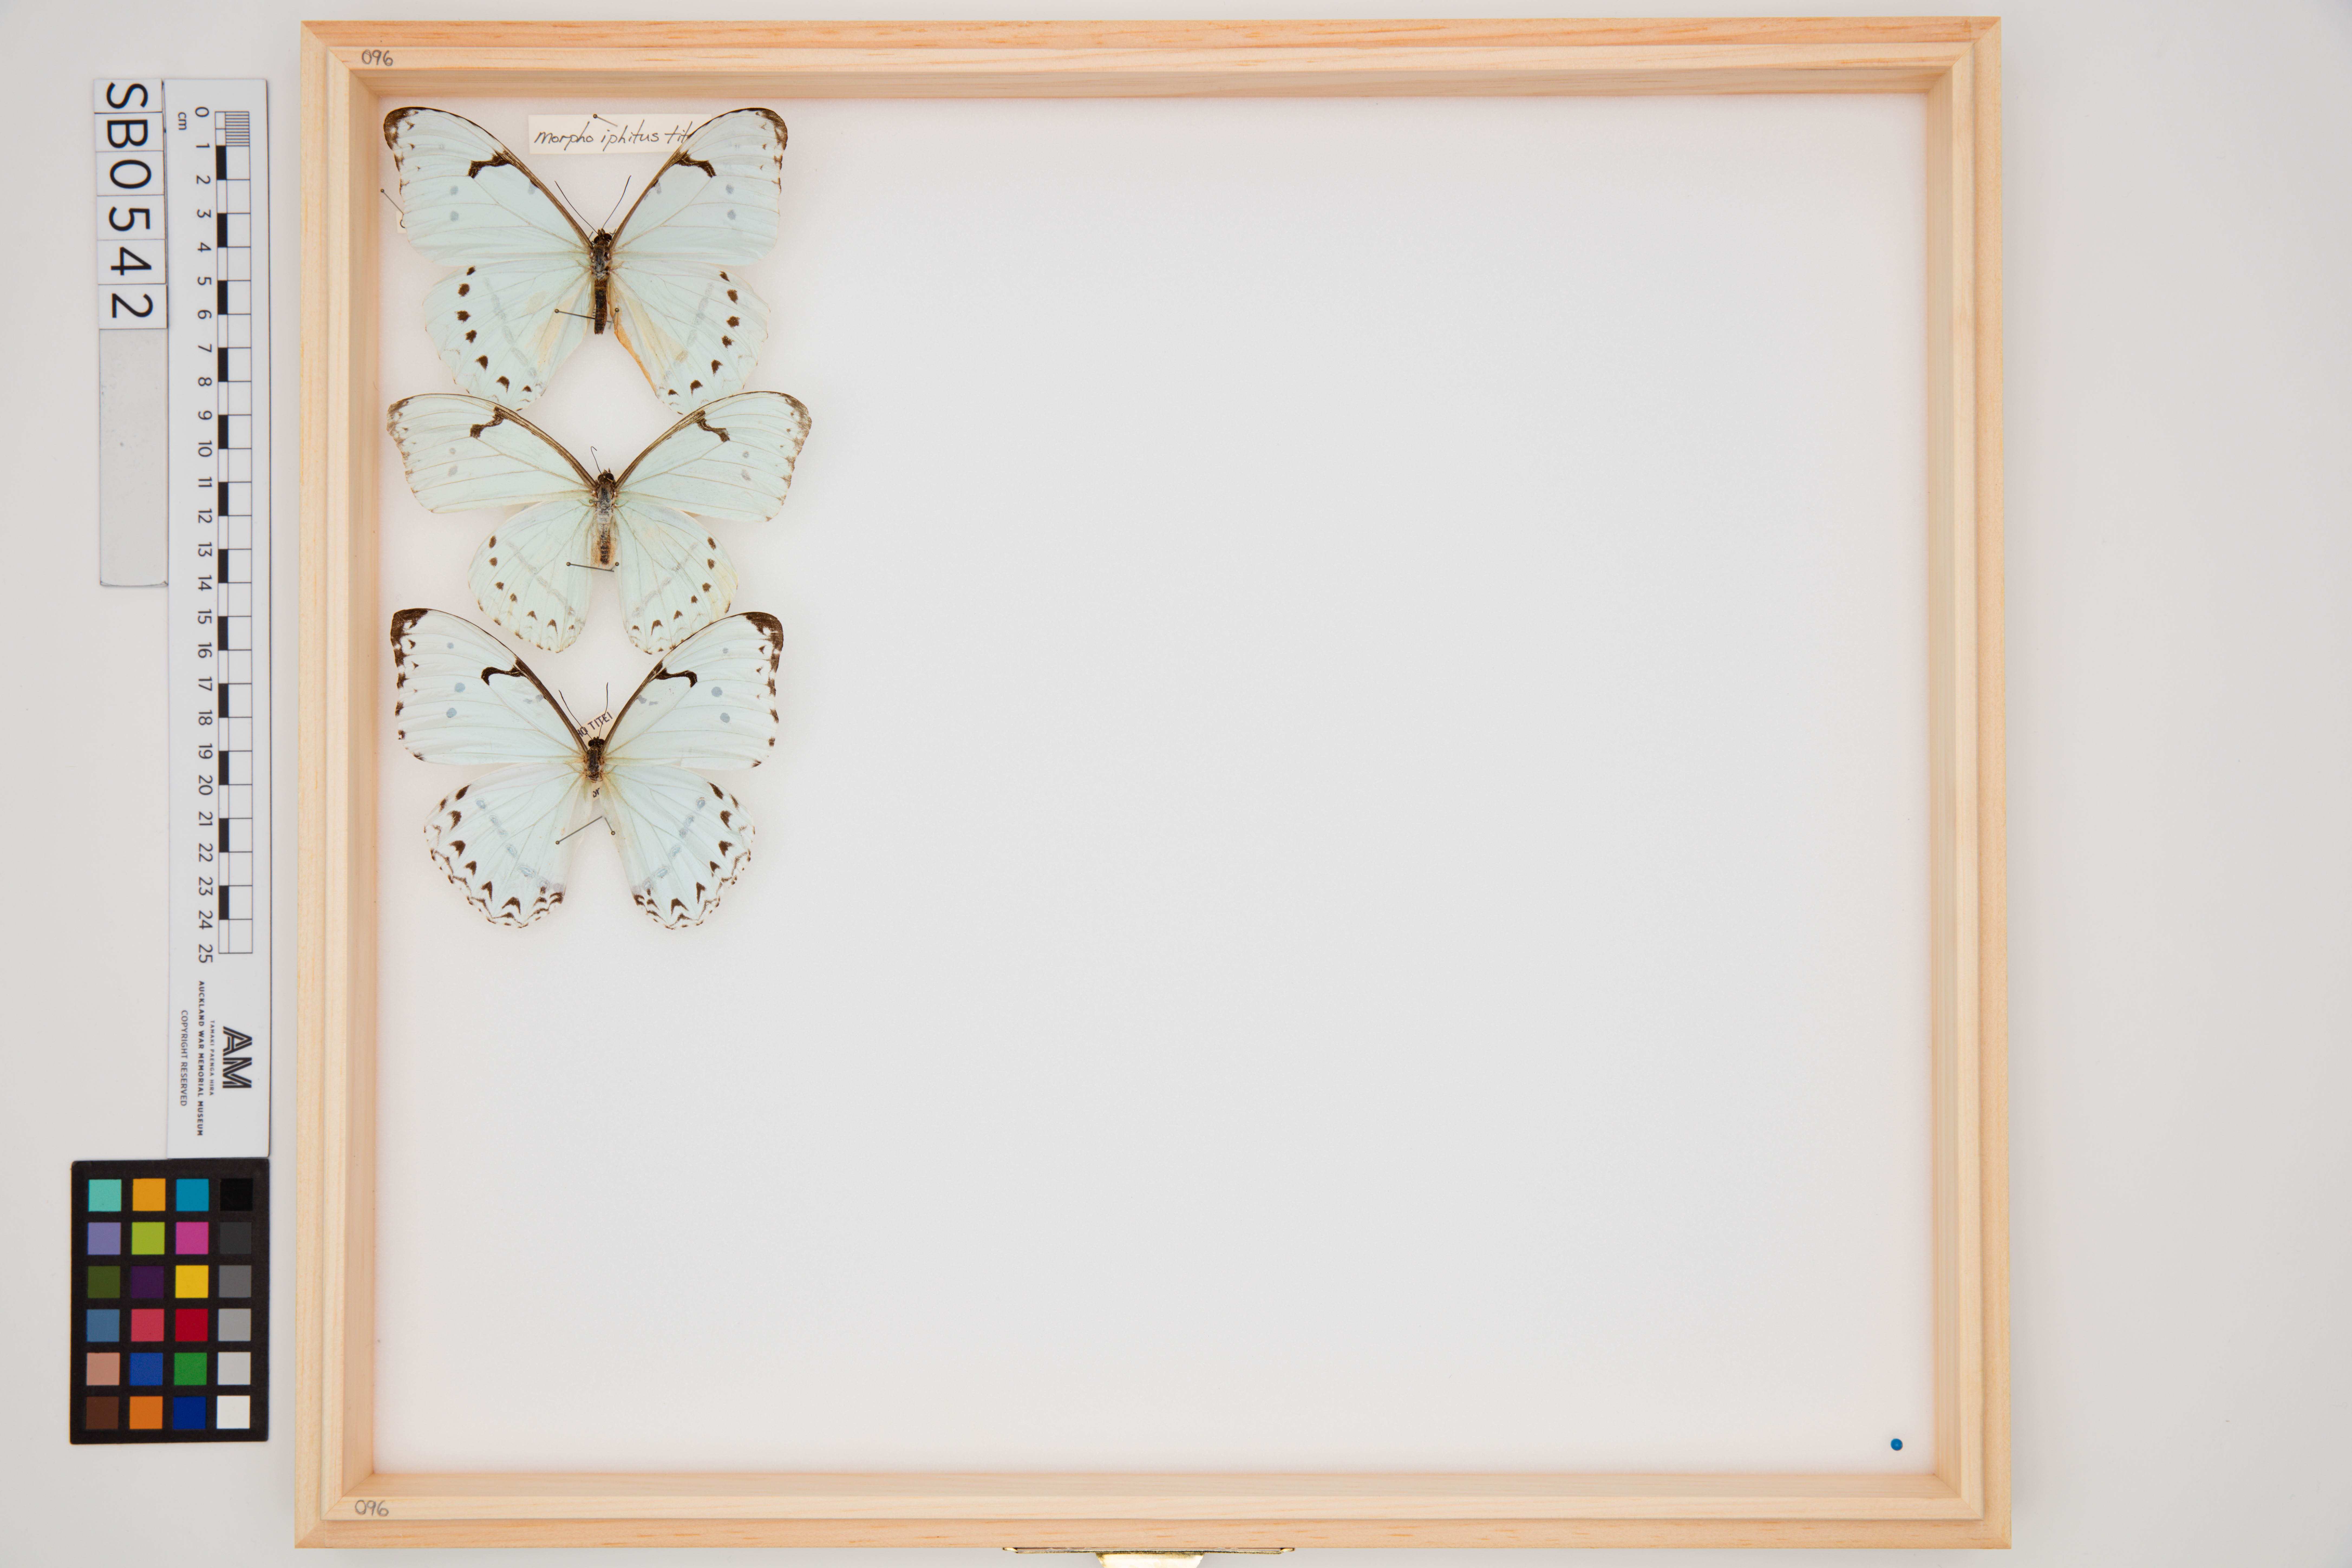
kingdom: Animalia
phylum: Arthropoda
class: Insecta
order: Lepidoptera
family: Nymphalidae
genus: Morpho
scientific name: Morpho iphitus
